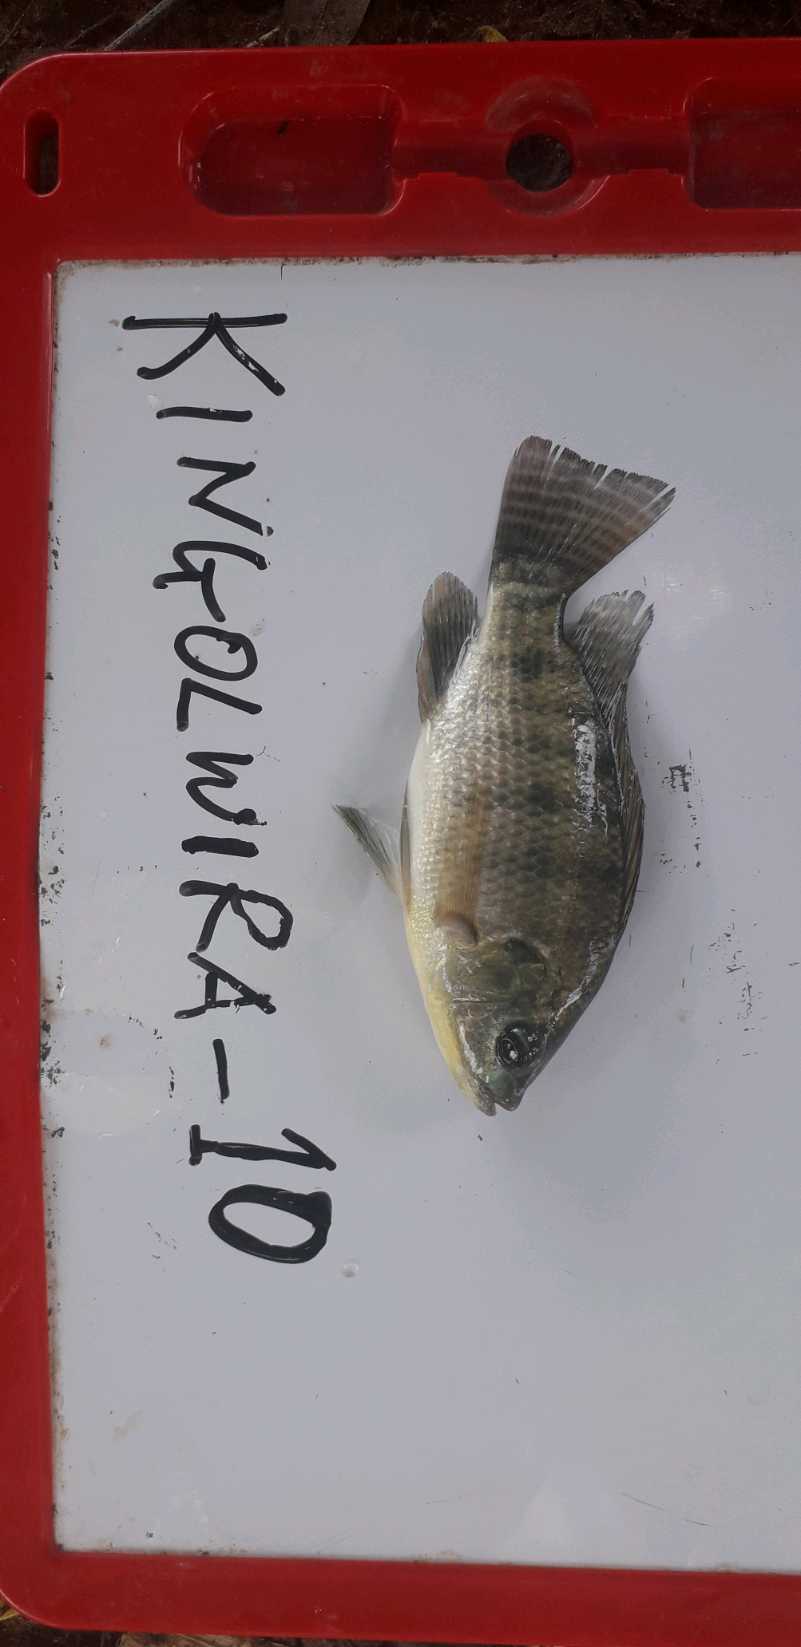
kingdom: Animalia
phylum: Chordata
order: Perciformes
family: Cichlidae
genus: Oreochromis
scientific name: Oreochromis niloticus
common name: Nile tilapia
